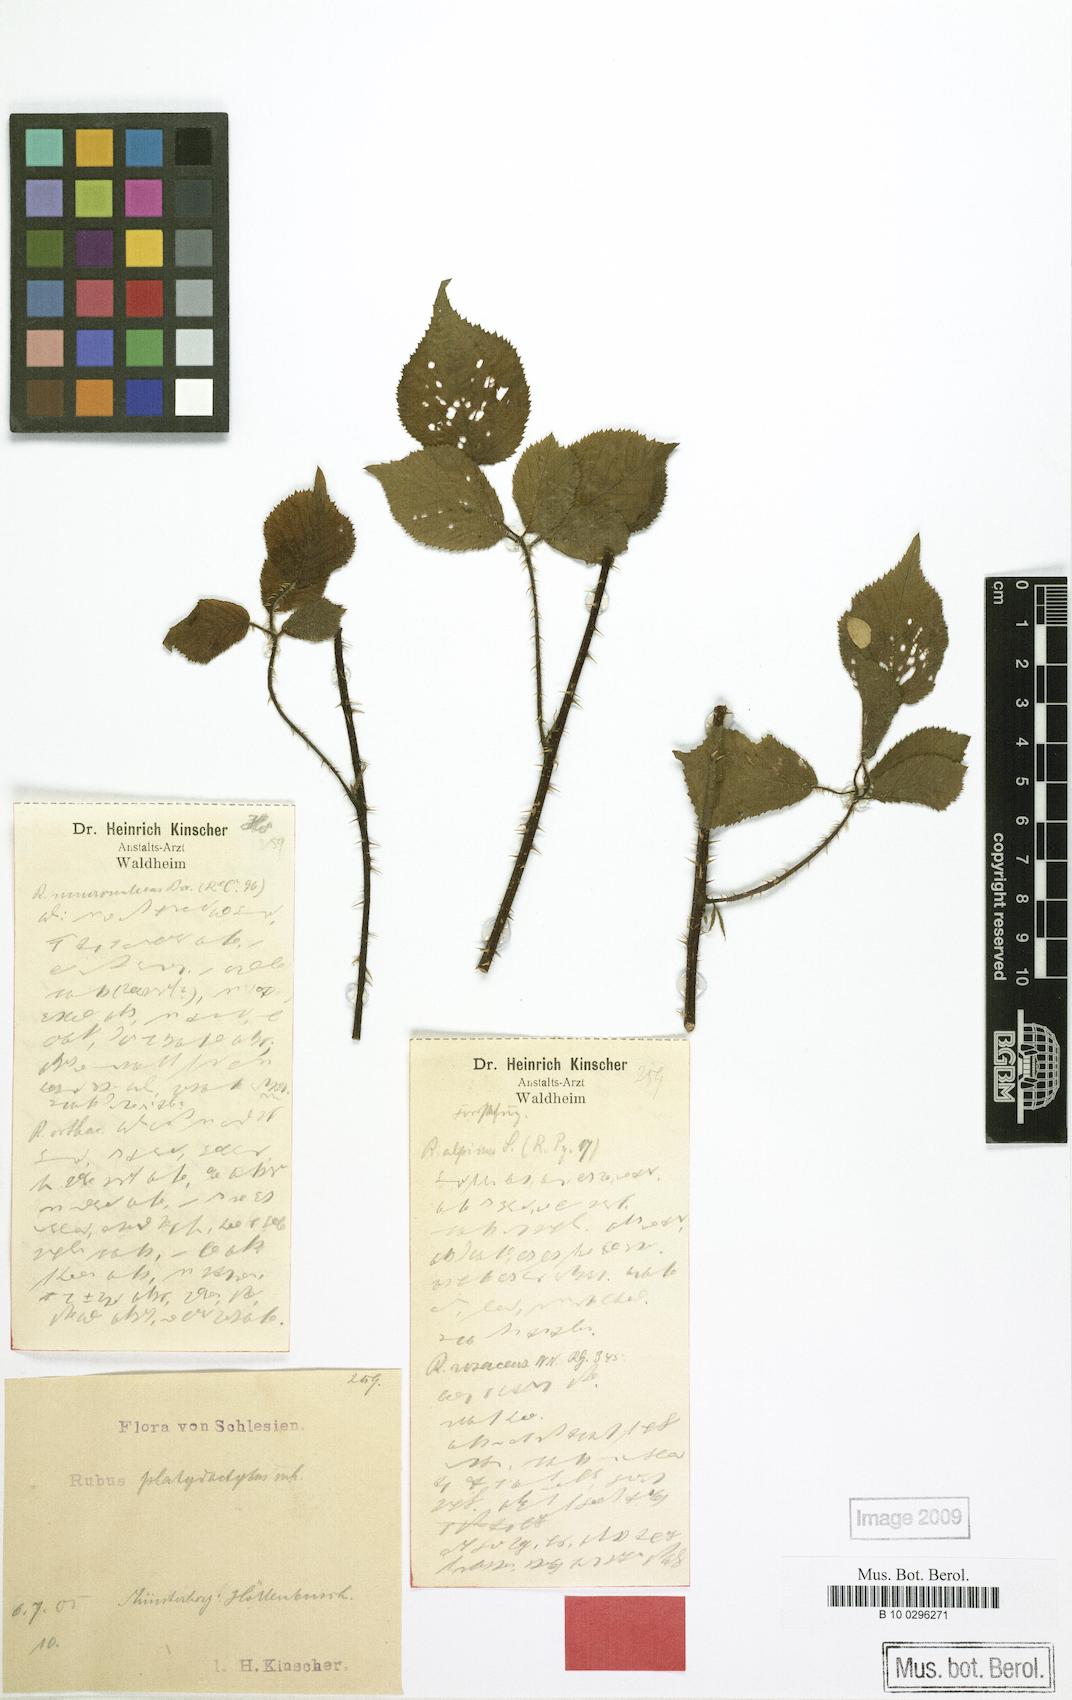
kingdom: Plantae
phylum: Tracheophyta
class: Magnoliopsida
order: Rosales
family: Rosaceae
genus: Rubus
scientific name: Rubus platydactylus
